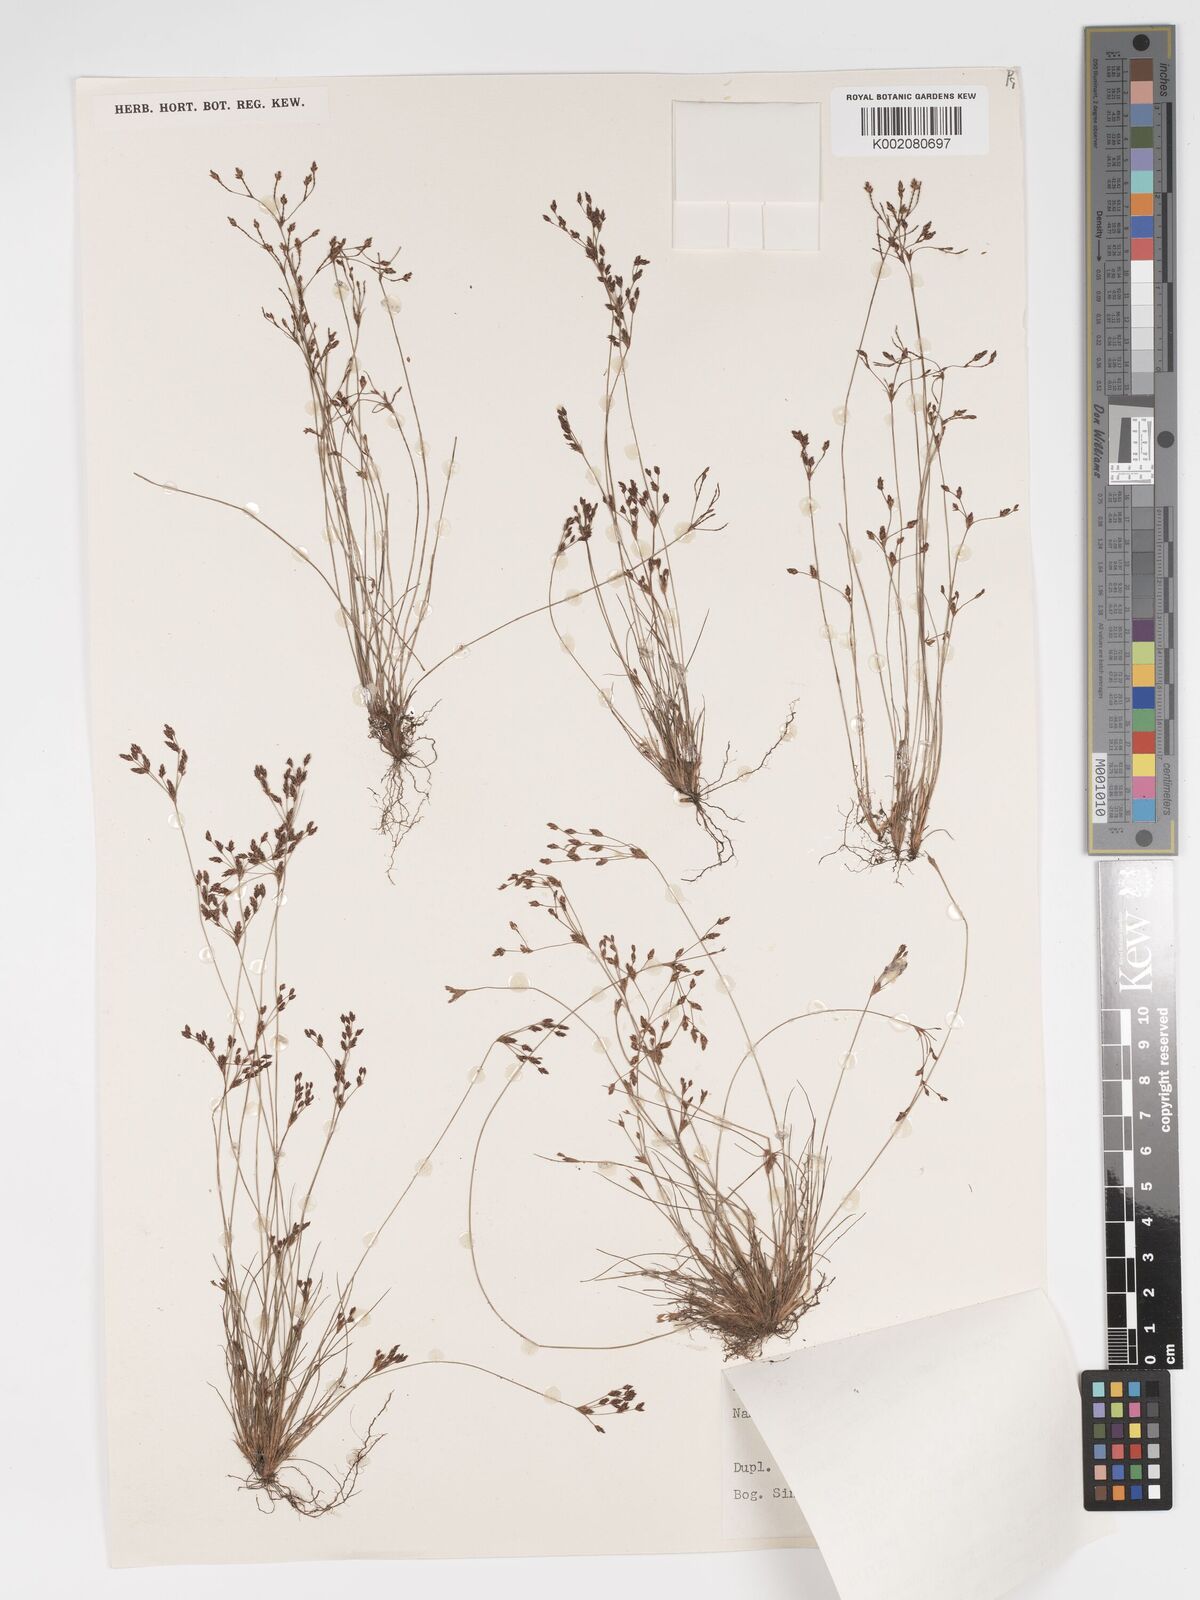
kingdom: Plantae
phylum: Tracheophyta
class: Liliopsida
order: Poales
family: Cyperaceae
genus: Bulbostylis
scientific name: Bulbostylis densa
